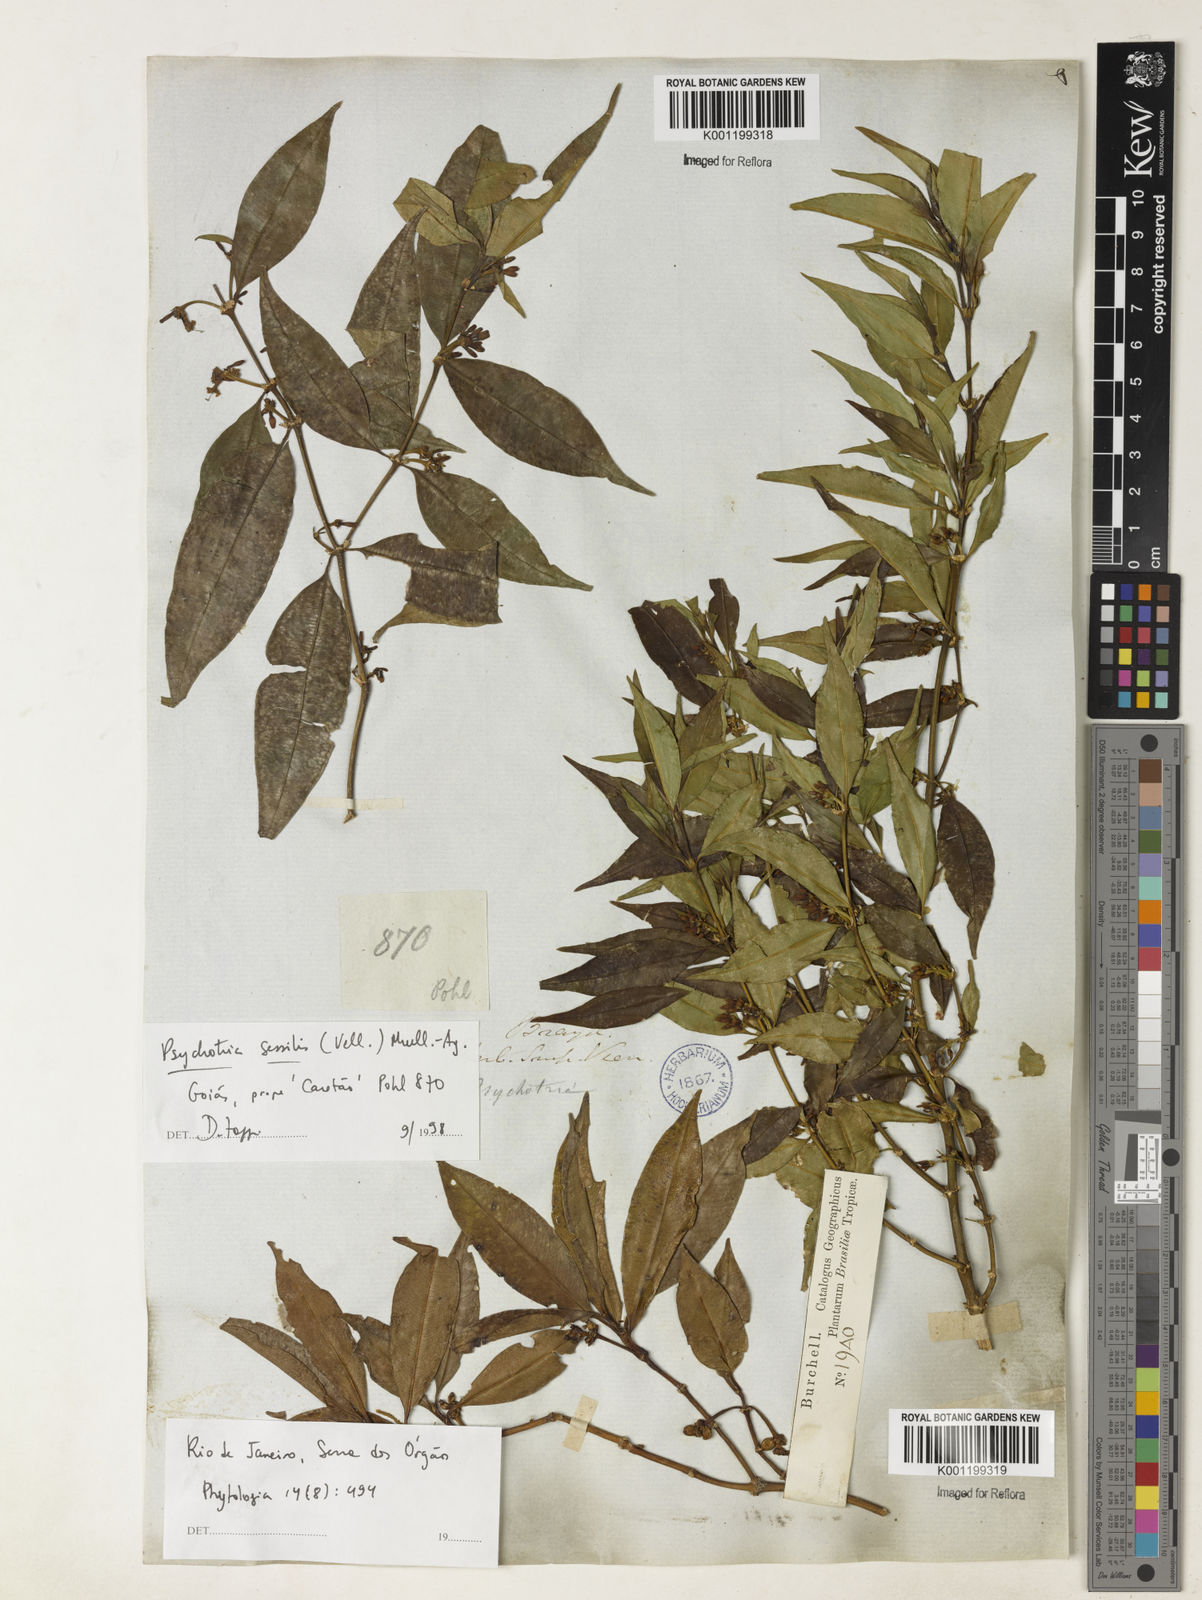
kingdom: Plantae
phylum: Tracheophyta
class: Magnoliopsida
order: Gentianales
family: Rubiaceae
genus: Rudgea
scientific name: Rudgea sessilis
